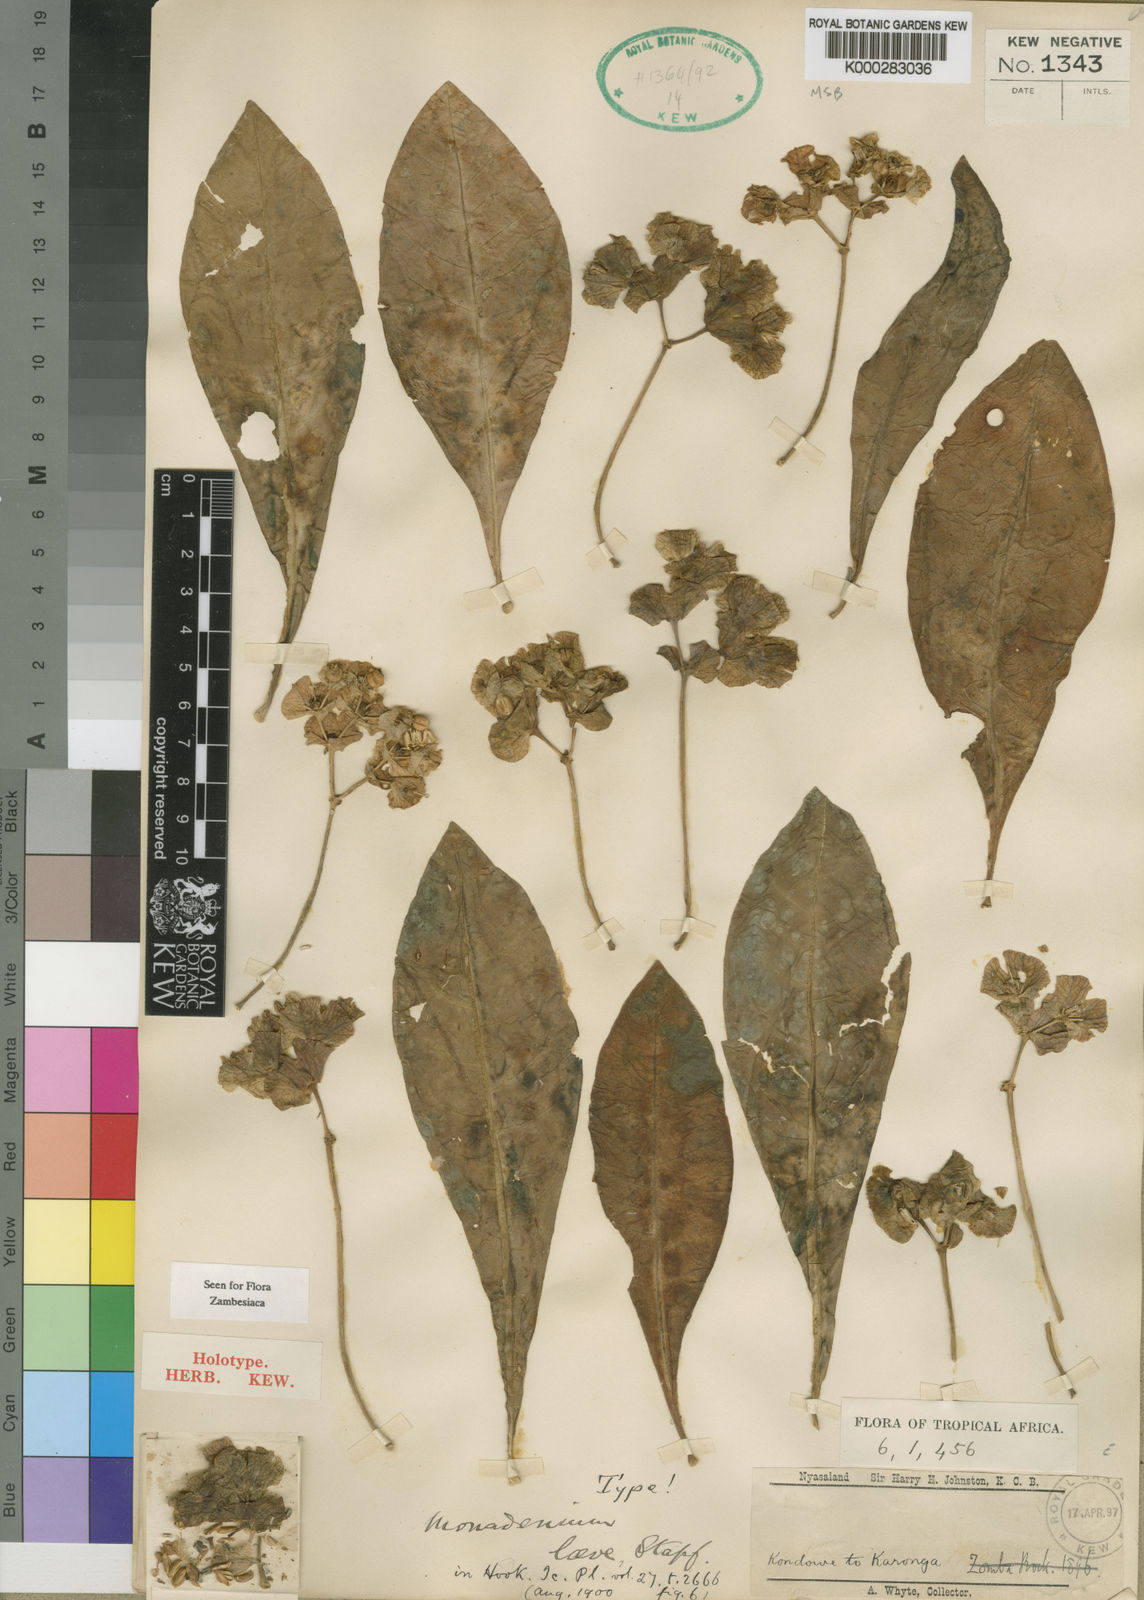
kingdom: Plantae
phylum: Tracheophyta
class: Magnoliopsida
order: Malpighiales
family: Euphorbiaceae
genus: Euphorbia
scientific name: Euphorbia pseudolaevis
